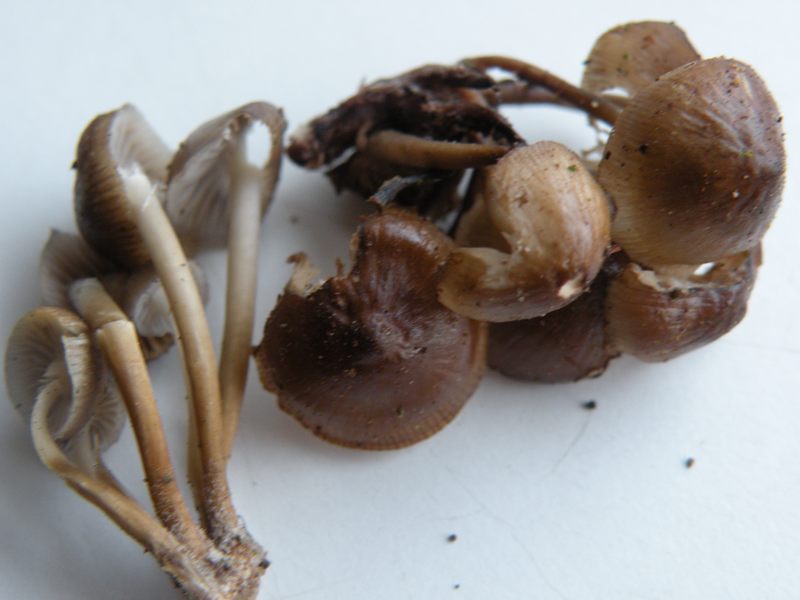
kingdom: Fungi
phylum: Basidiomycota
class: Agaricomycetes
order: Agaricales
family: Mycenaceae
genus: Mycena
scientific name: Mycena tintinnabulum
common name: vinter-huesvamp
